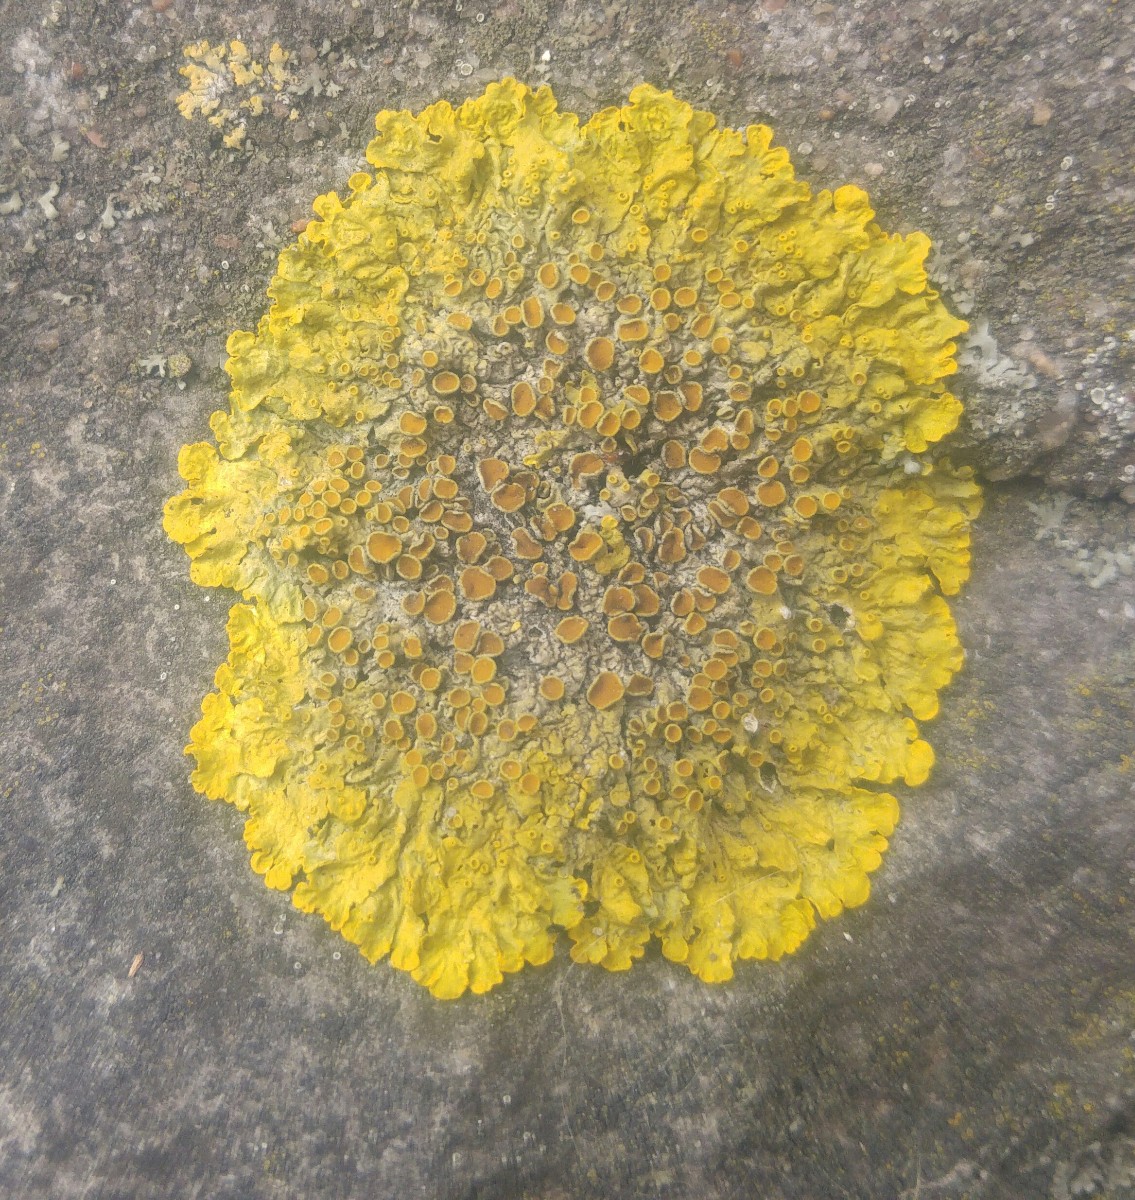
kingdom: Fungi
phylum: Ascomycota
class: Lecanoromycetes
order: Teloschistales
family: Teloschistaceae
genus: Xanthoria
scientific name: Xanthoria parietina
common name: almindelig væggelav
